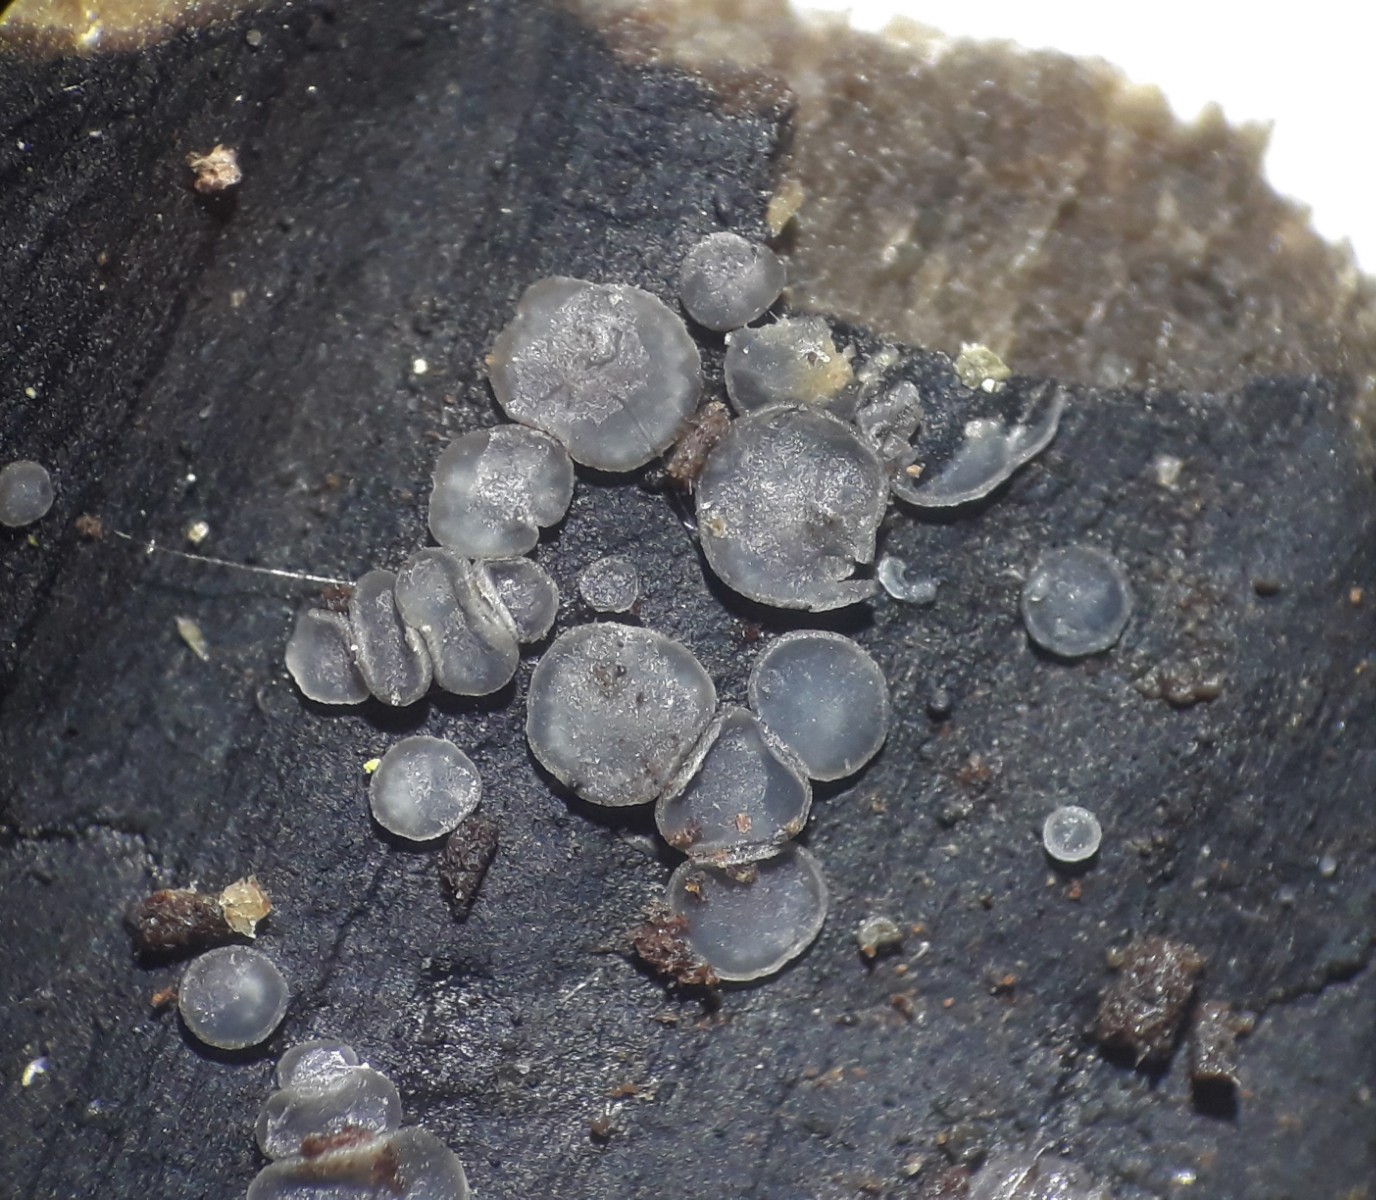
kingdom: Fungi
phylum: Ascomycota
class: Leotiomycetes
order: Helotiales
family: Mollisiaceae
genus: Mollisia
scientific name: Mollisia
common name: gråskive
